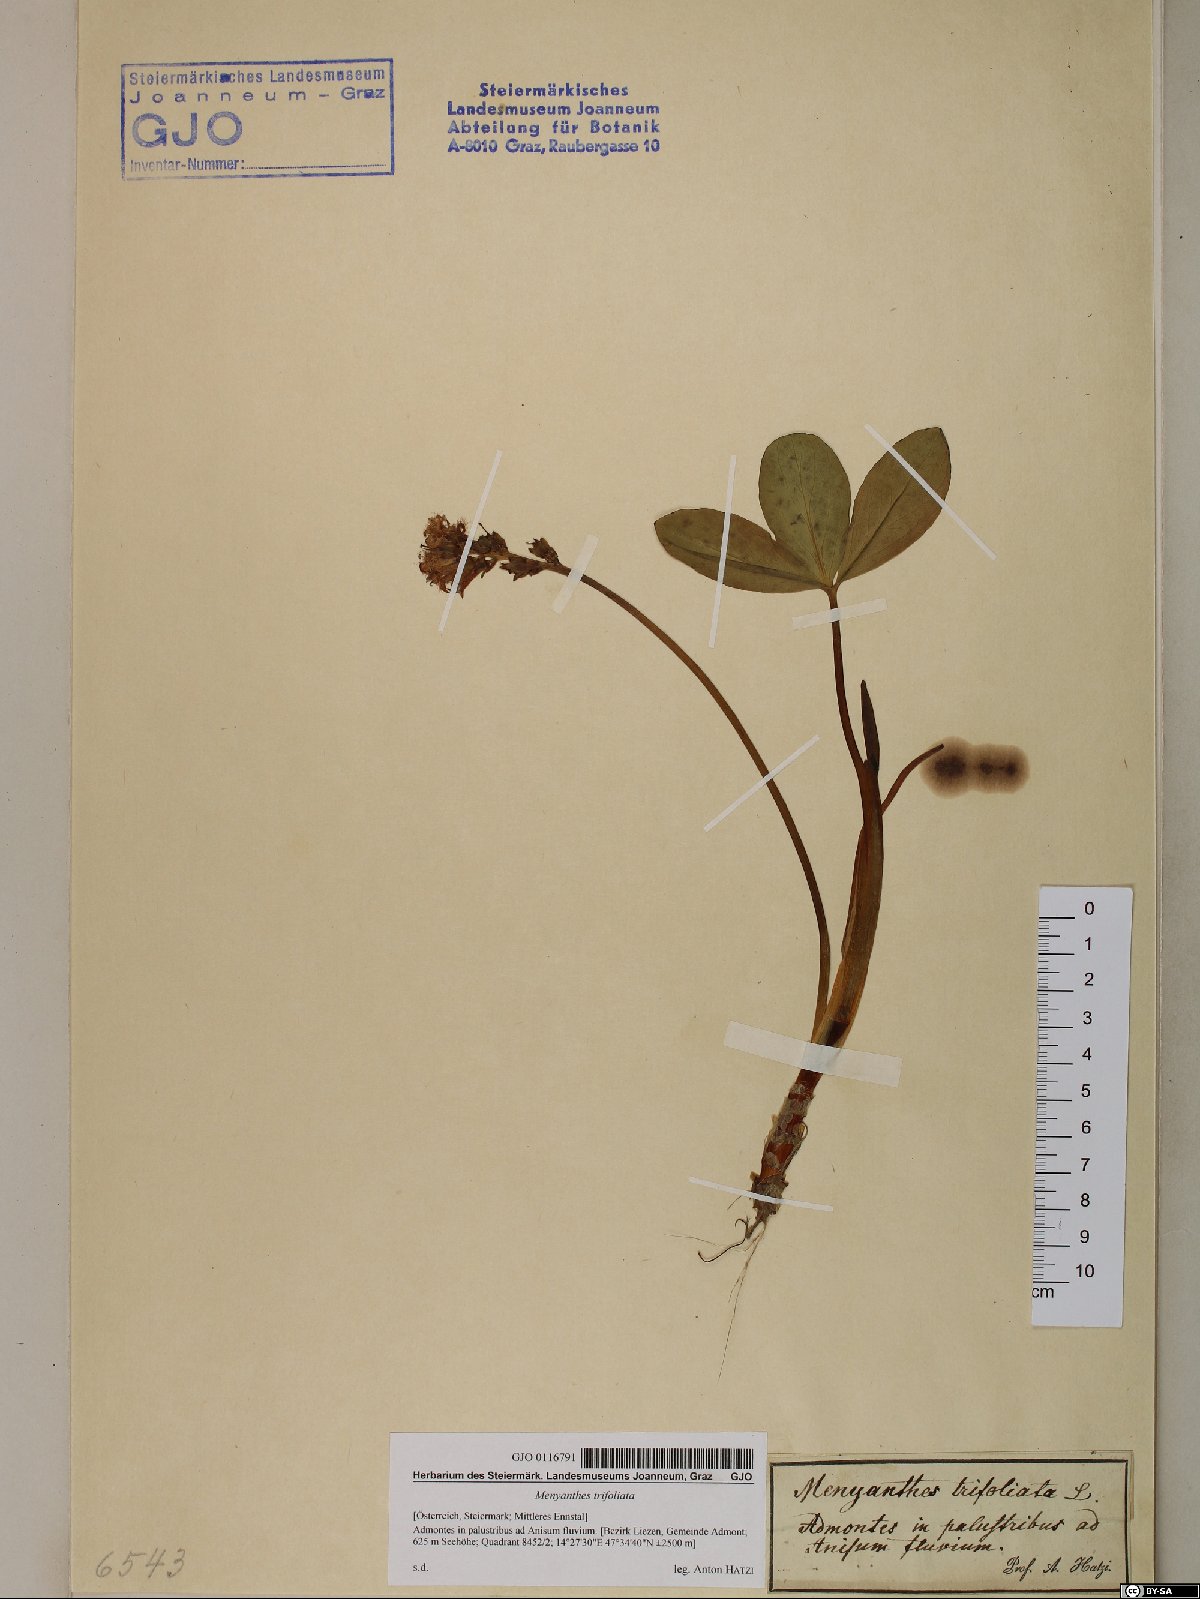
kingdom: Plantae
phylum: Tracheophyta
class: Magnoliopsida
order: Asterales
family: Menyanthaceae
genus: Menyanthes
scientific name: Menyanthes trifoliata
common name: Bogbean
